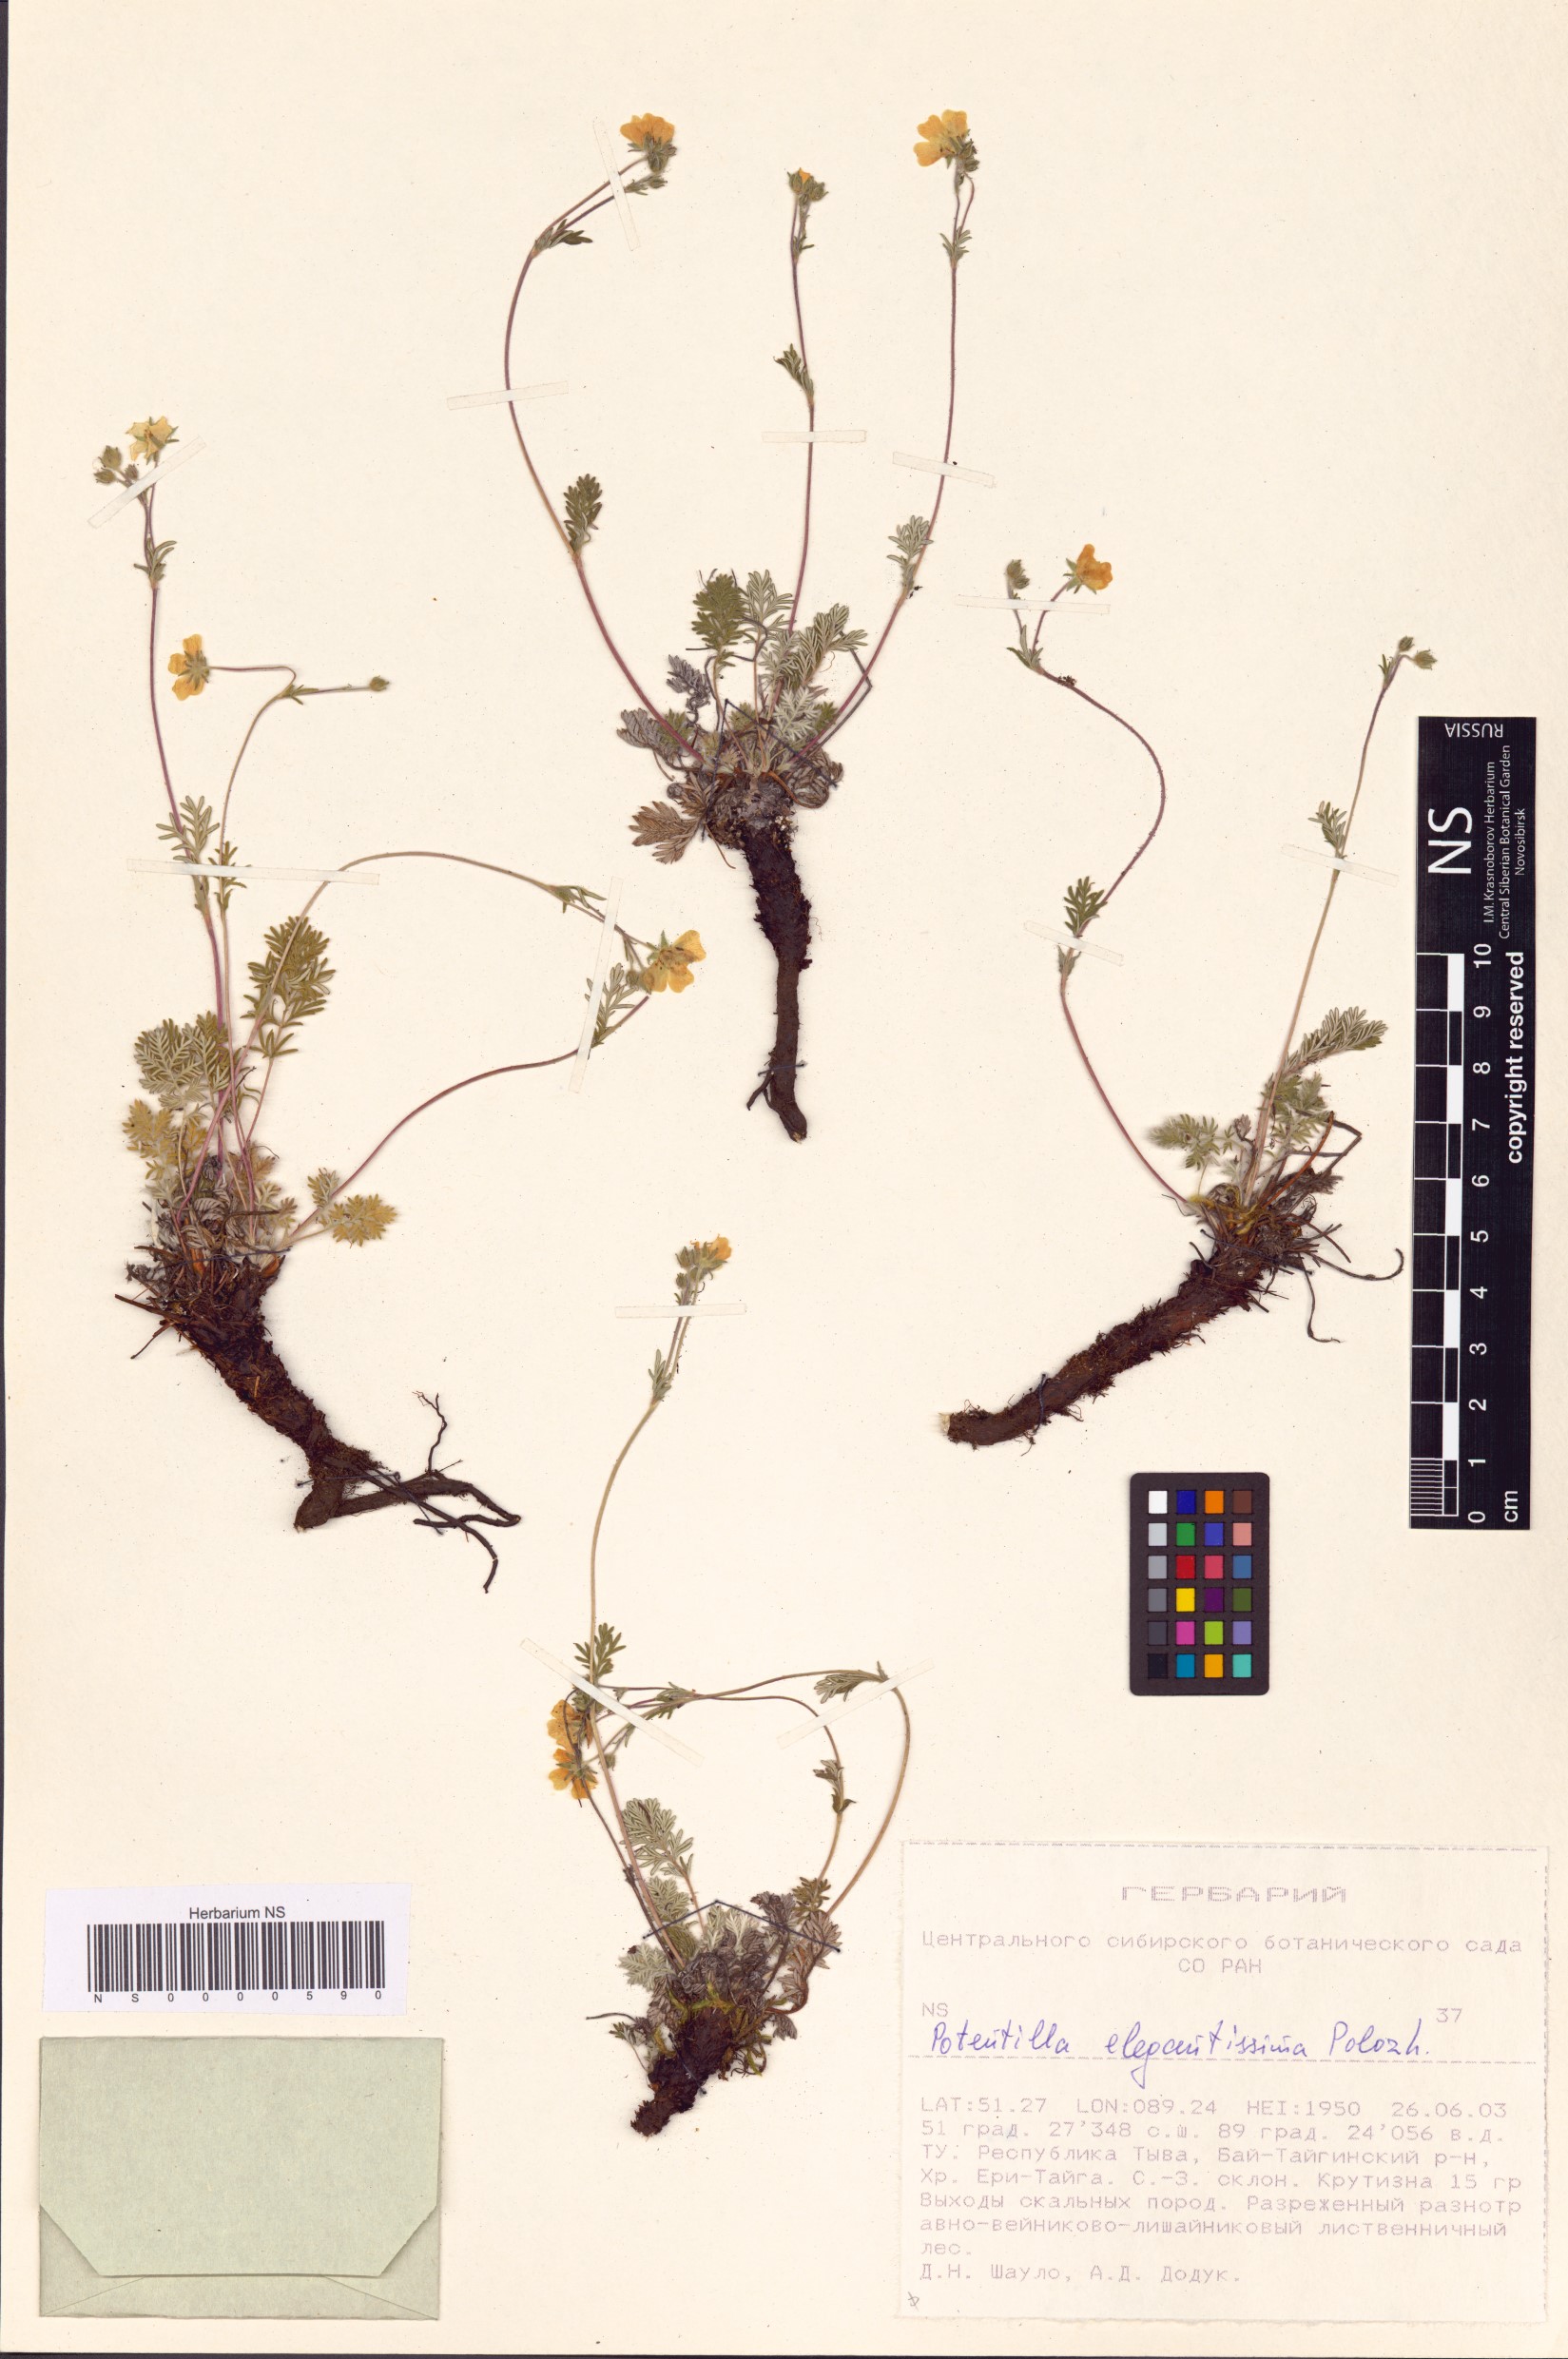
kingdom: Plantae
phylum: Tracheophyta
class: Magnoliopsida
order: Rosales
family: Rosaceae
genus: Potentilla
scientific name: Potentilla sericea
